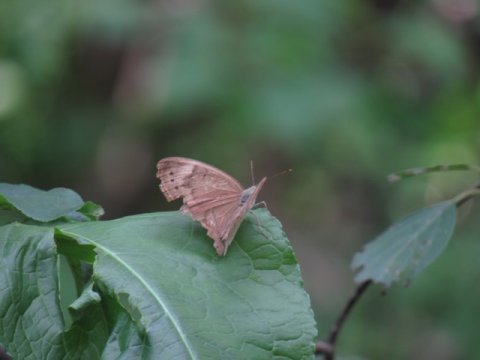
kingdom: Animalia
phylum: Arthropoda
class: Insecta
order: Lepidoptera
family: Nymphalidae
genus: Lethe
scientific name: Lethe eurydice
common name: Appalachian Eyed Brown
